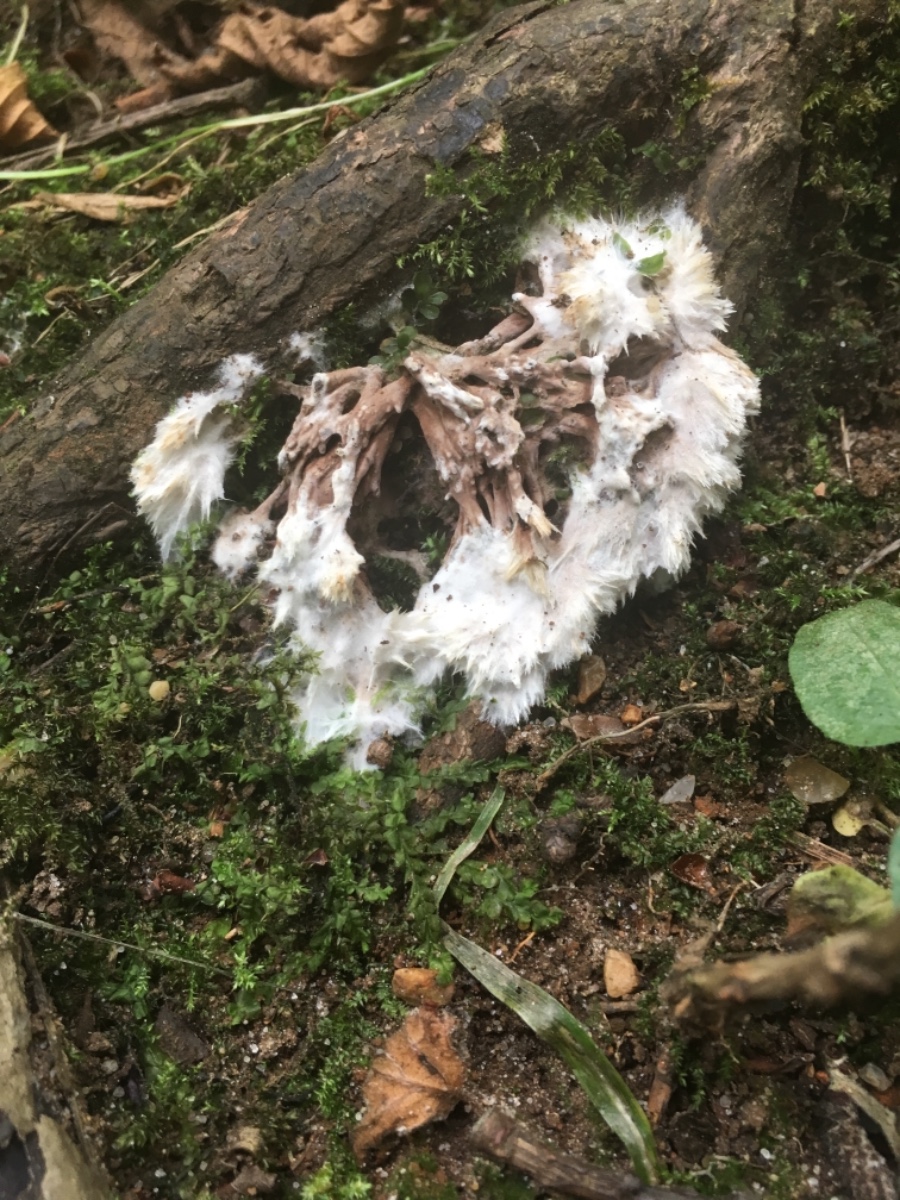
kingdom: Fungi
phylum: Basidiomycota
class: Agaricomycetes
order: Thelephorales
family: Thelephoraceae
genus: Thelephora
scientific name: Thelephora penicillata
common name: fladtrådt frynsesvamp
